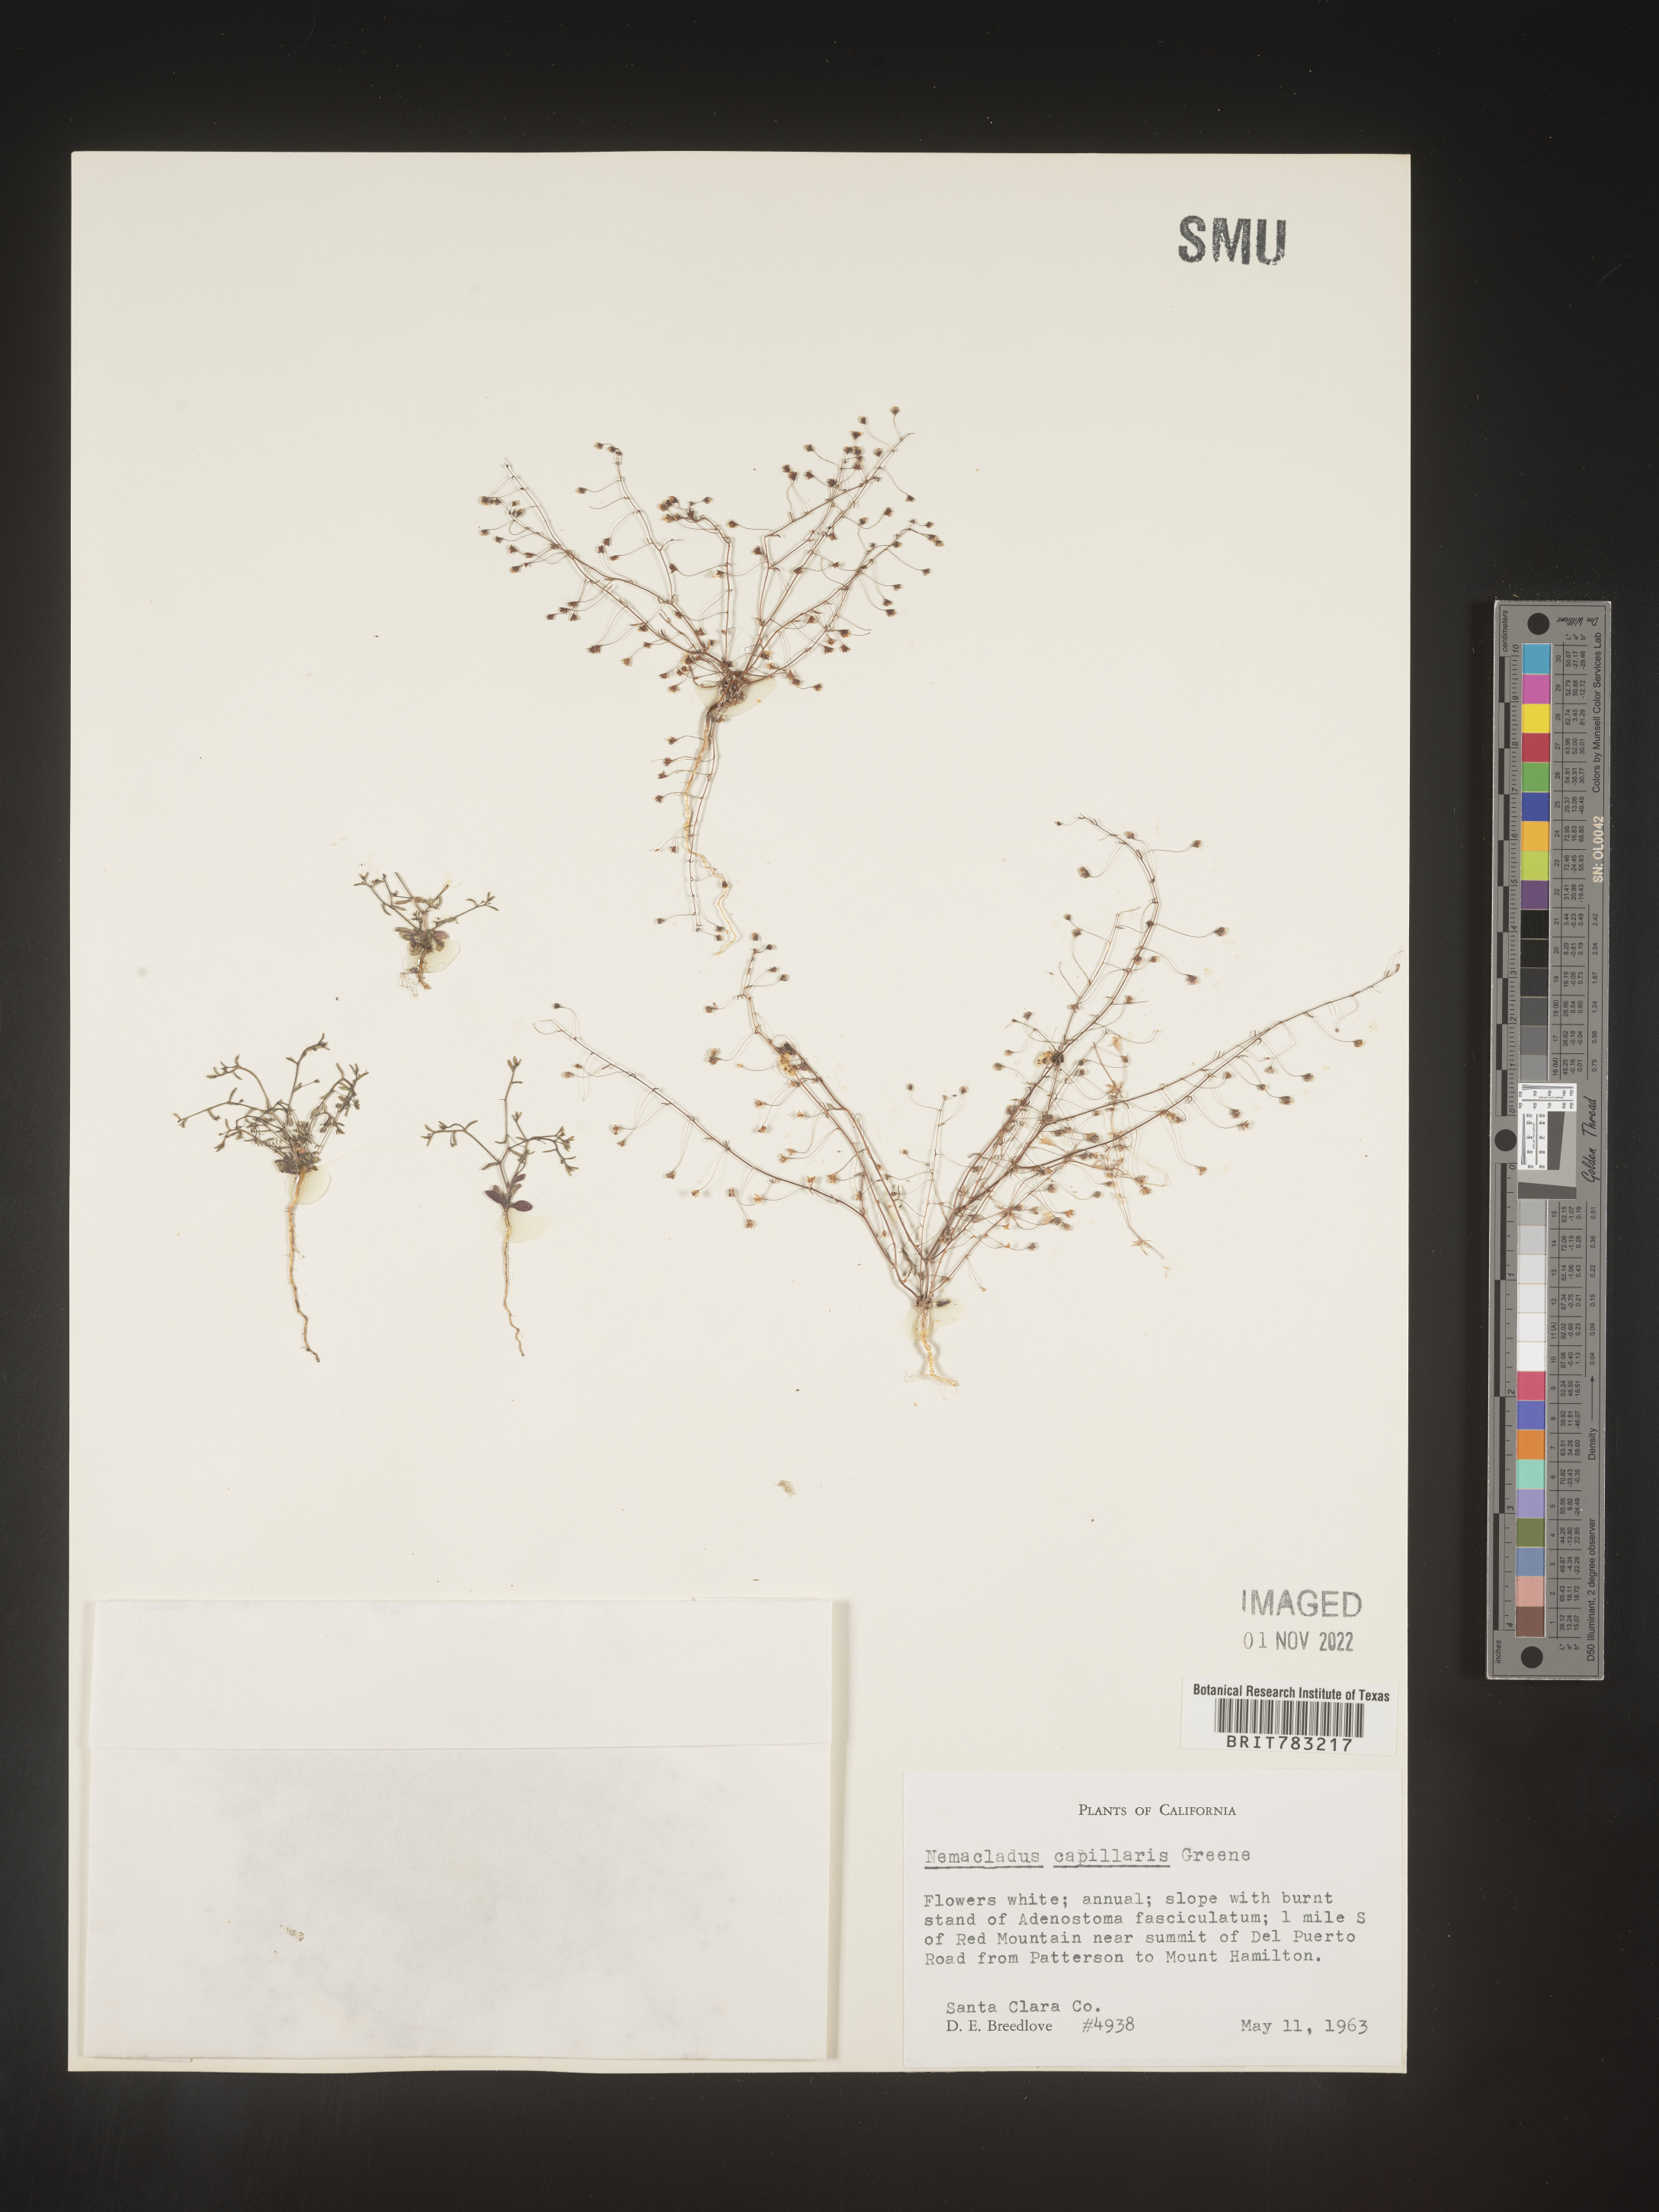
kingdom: Plantae
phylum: Tracheophyta
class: Magnoliopsida
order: Asterales
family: Campanulaceae
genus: Nemacladus
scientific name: Nemacladus
